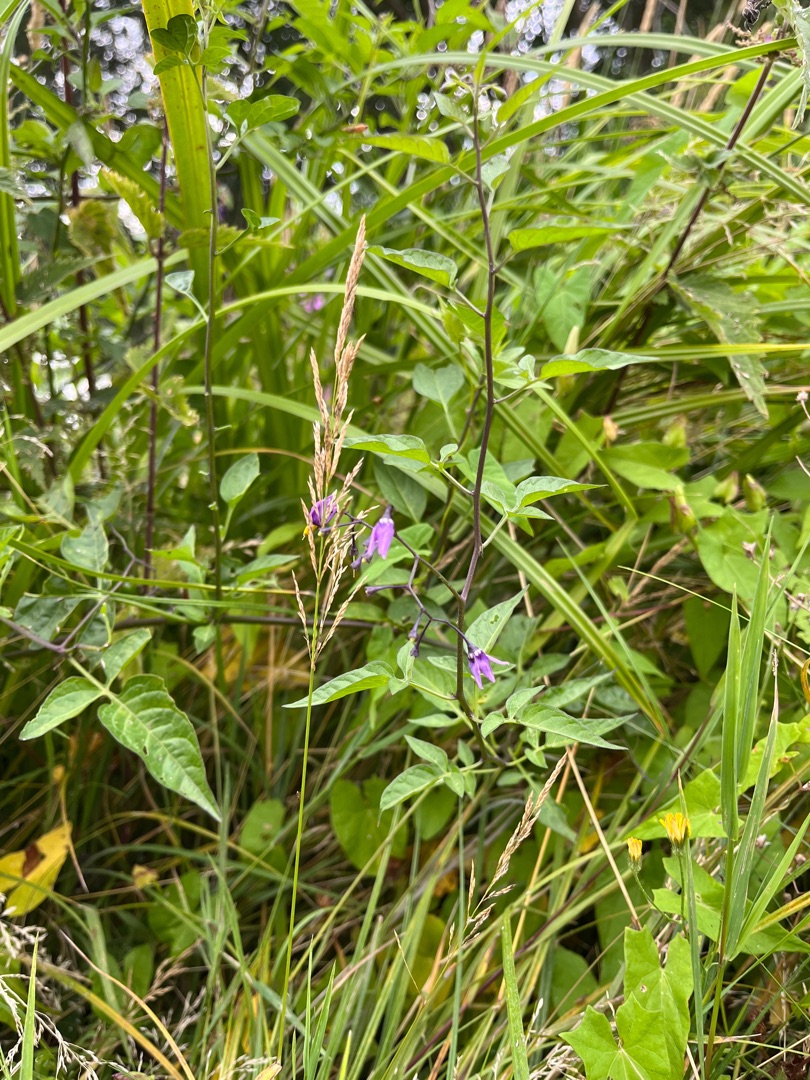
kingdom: Plantae
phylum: Tracheophyta
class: Magnoliopsida
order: Solanales
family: Solanaceae
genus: Solanum
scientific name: Solanum dulcamara
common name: Bittersød natskygge
